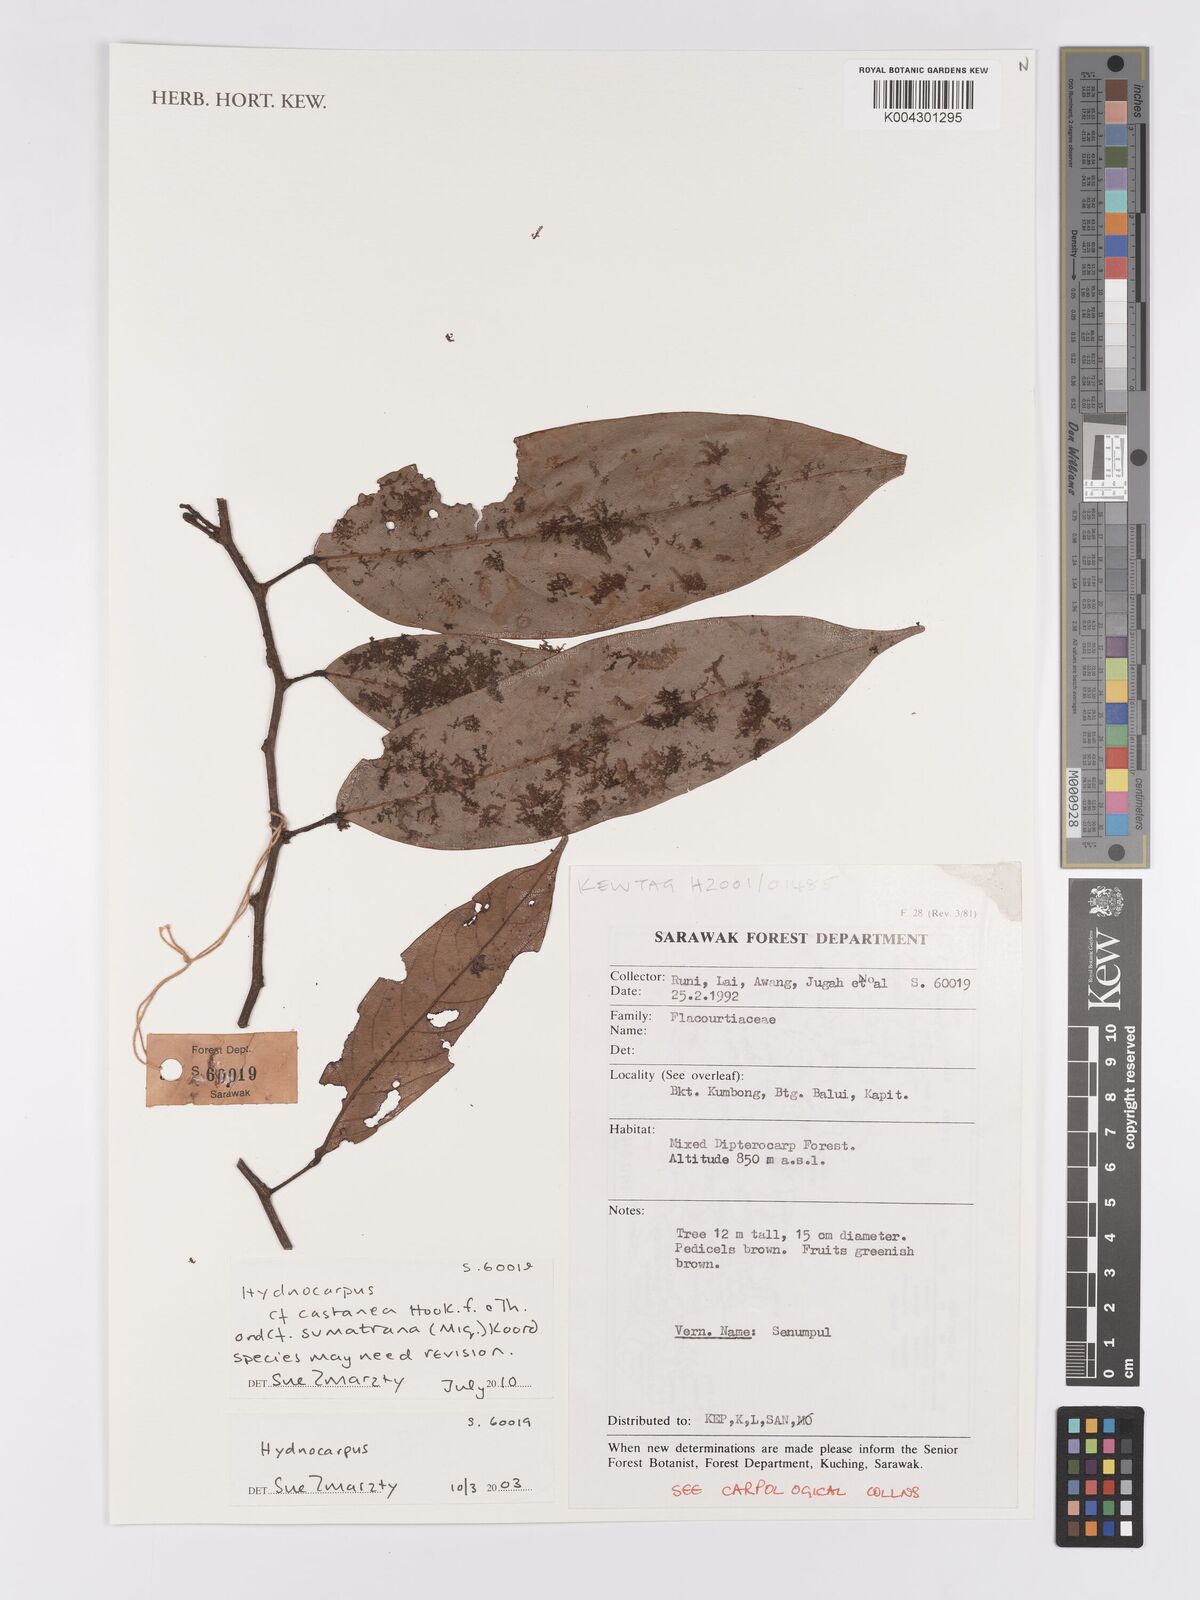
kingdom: Plantae
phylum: Tracheophyta
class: Magnoliopsida
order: Malpighiales
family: Achariaceae
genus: Hydnocarpus
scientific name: Hydnocarpus
